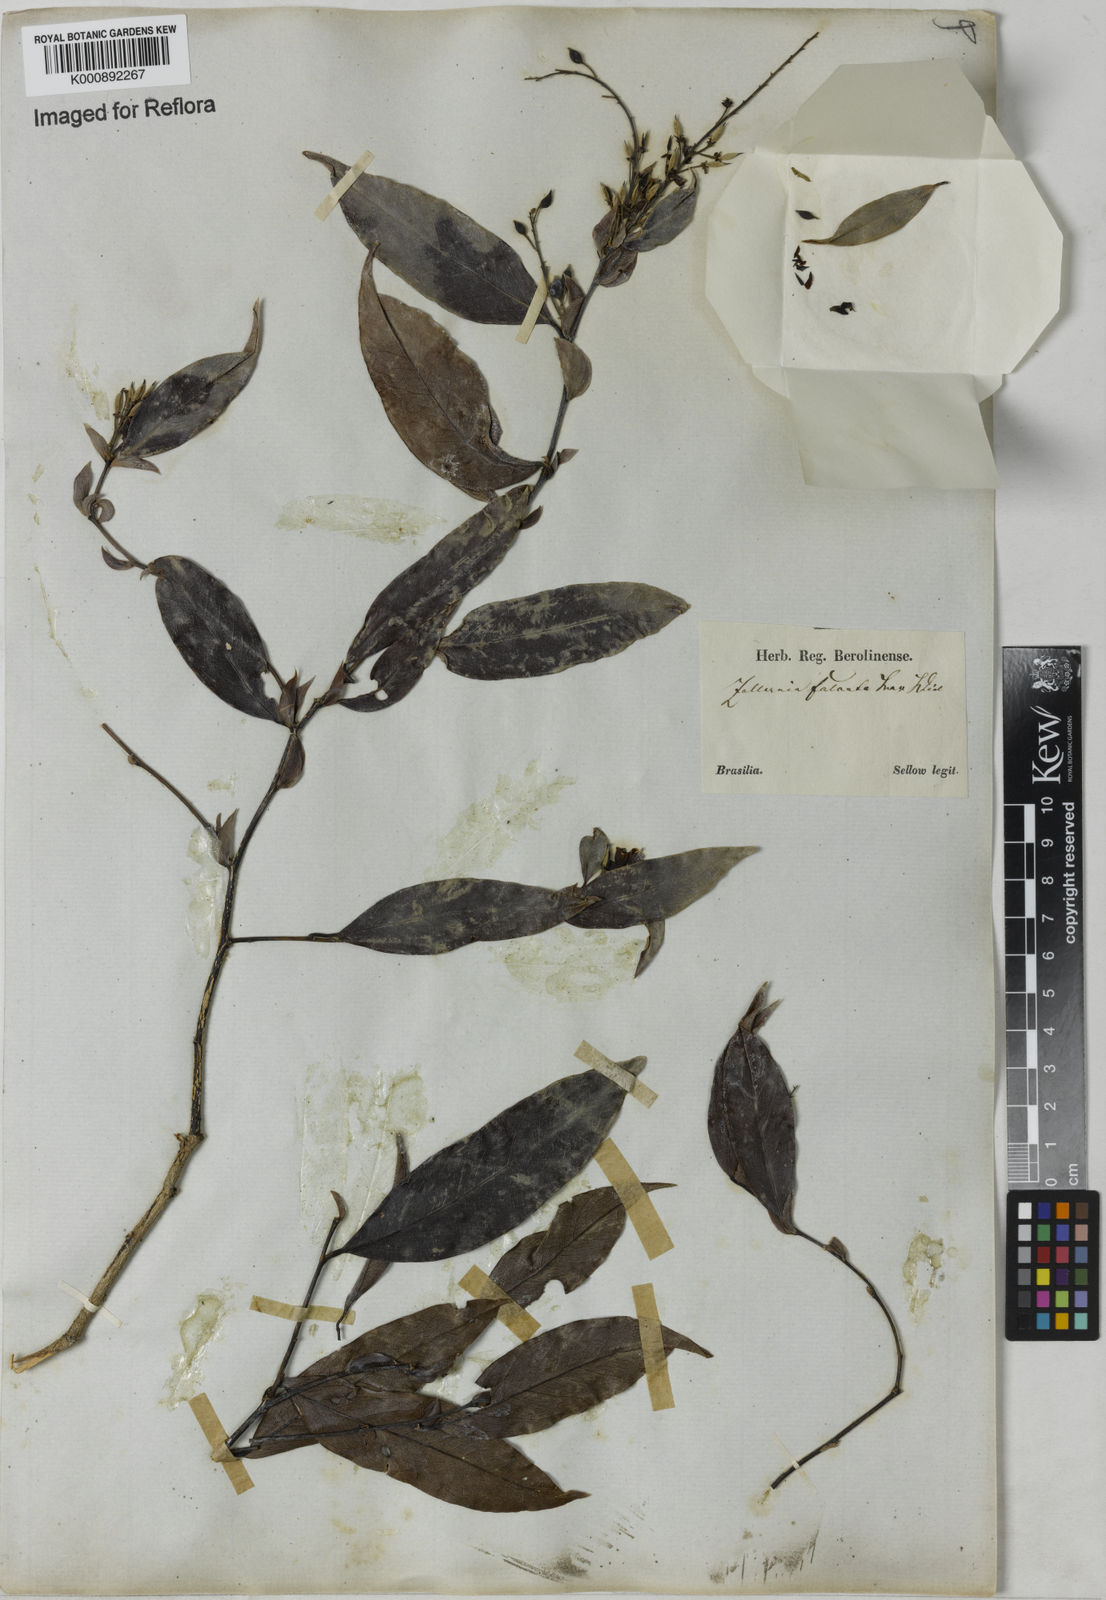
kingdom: Plantae
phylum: Tracheophyta
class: Magnoliopsida
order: Fabales
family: Fabaceae
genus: Zollernia
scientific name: Zollernia glabra
